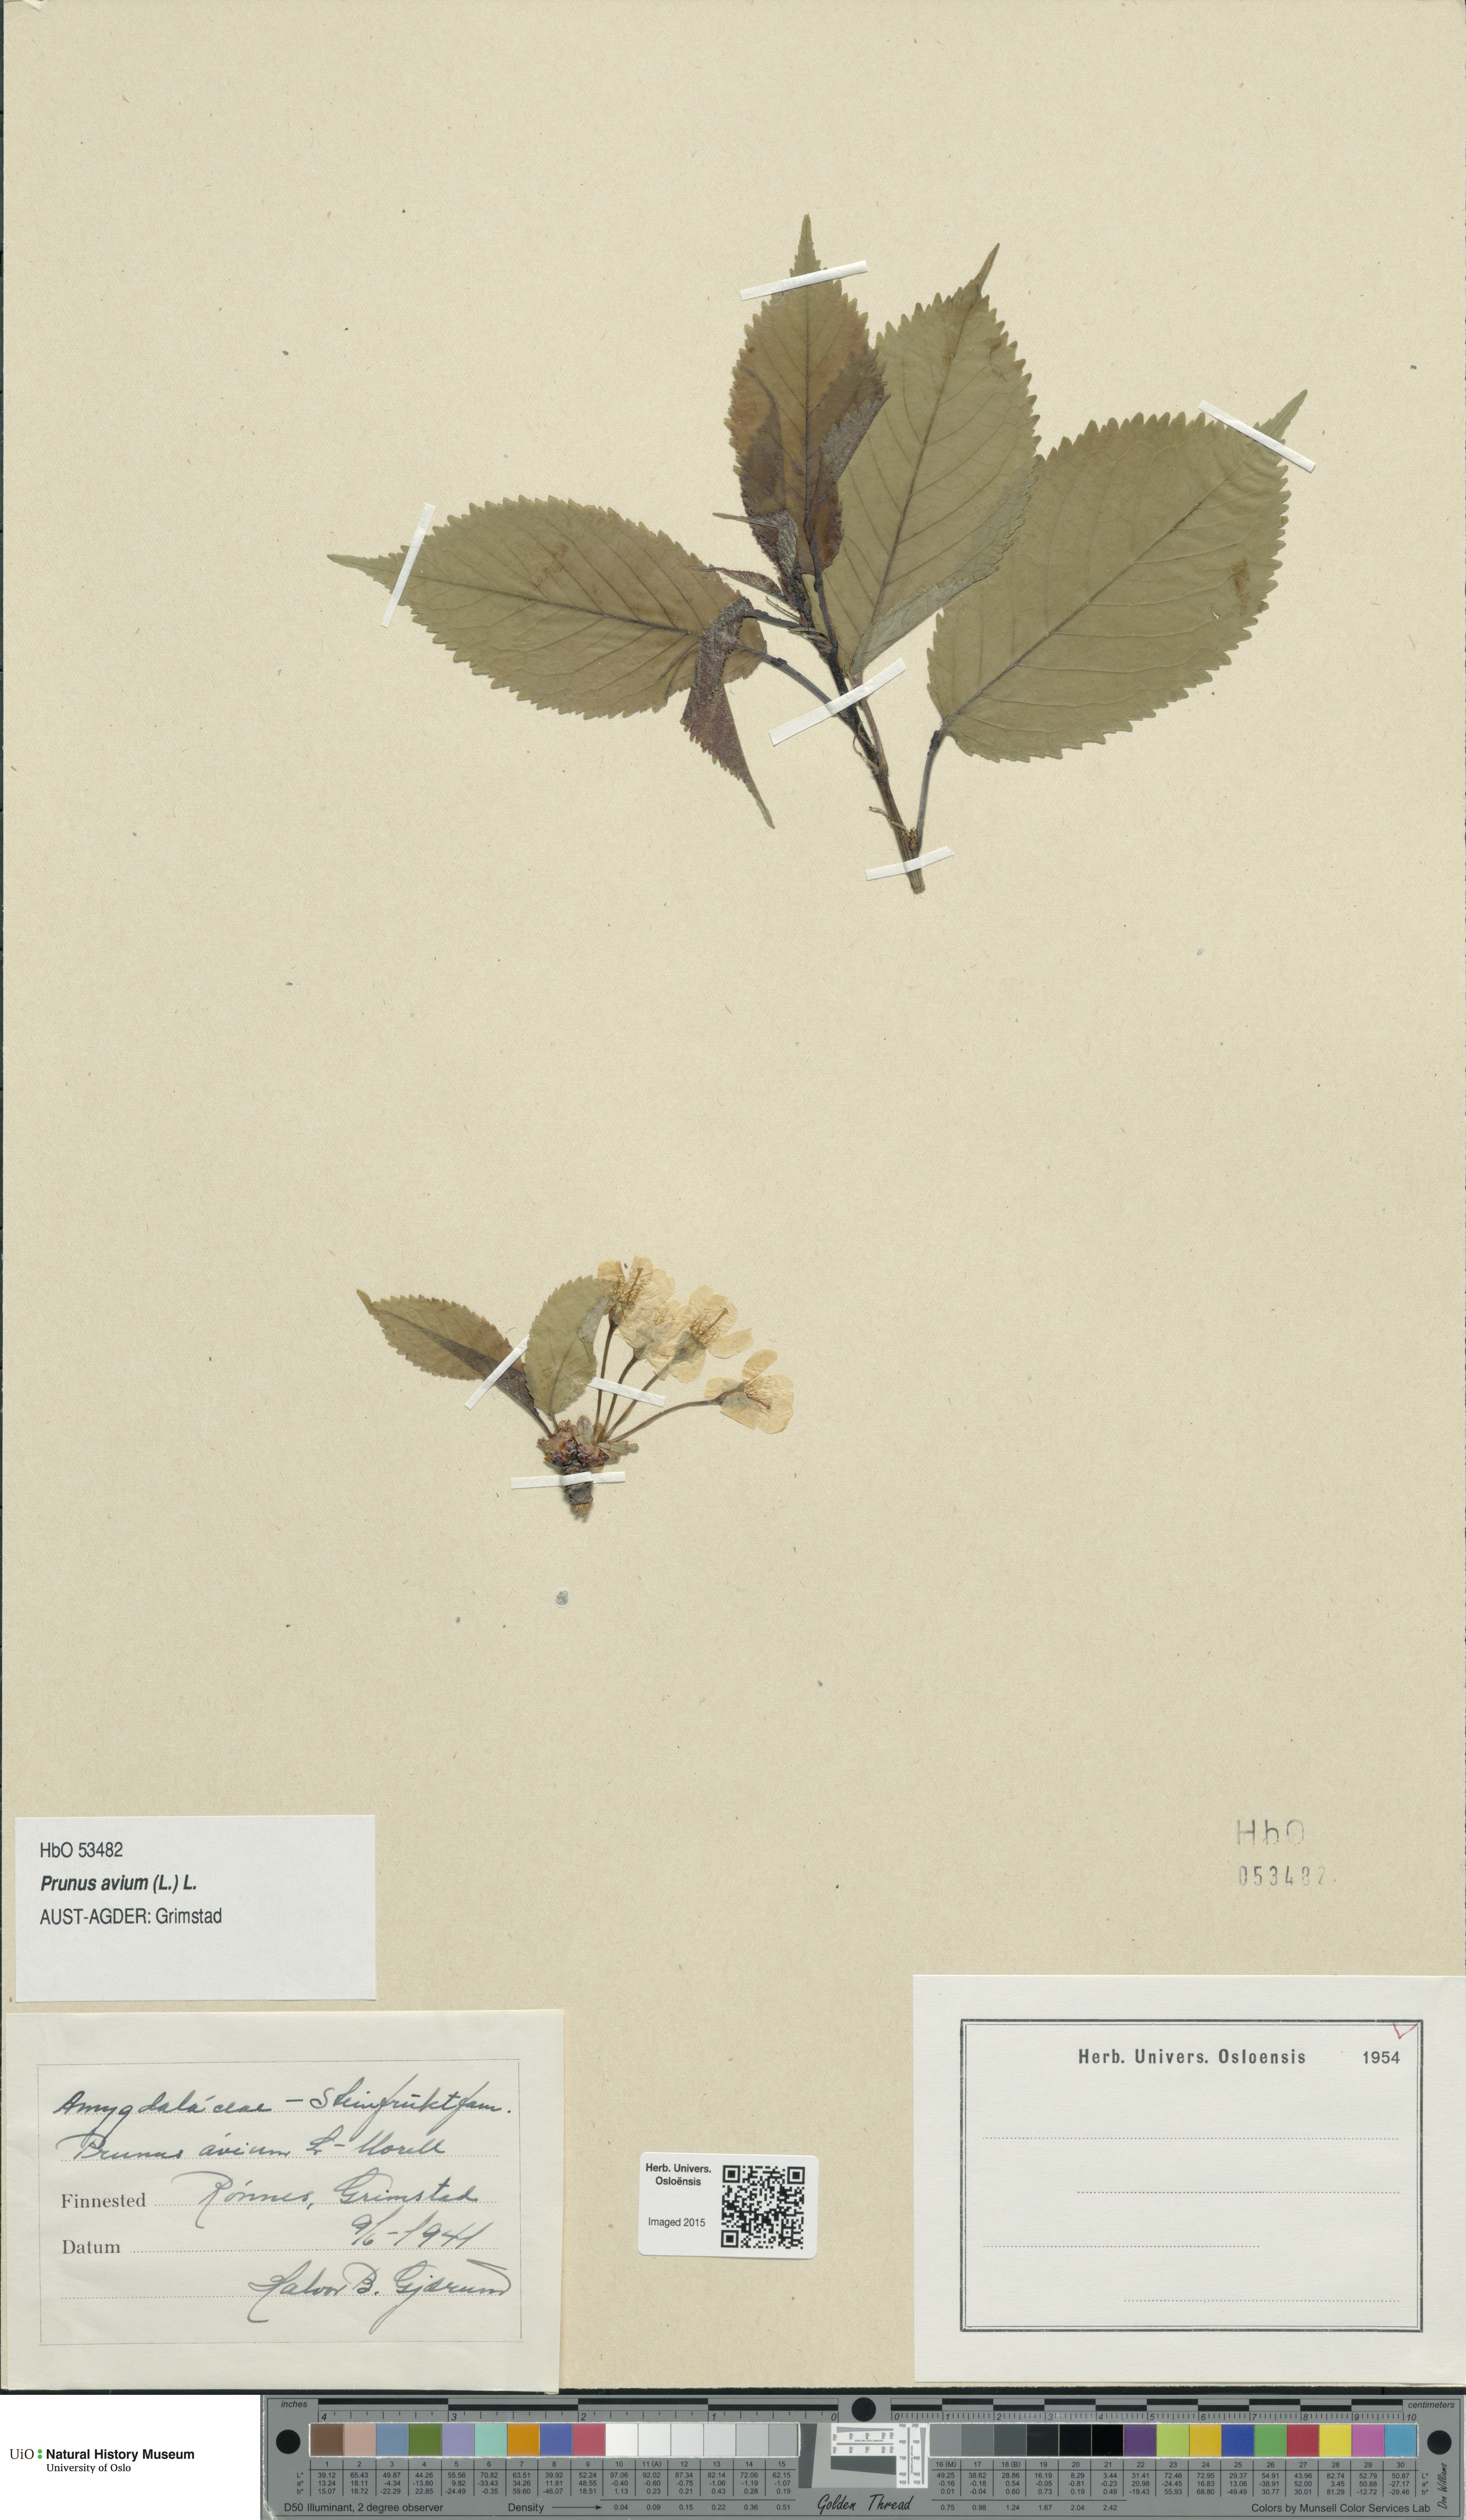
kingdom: Plantae
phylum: Tracheophyta
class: Magnoliopsida
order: Rosales
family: Rosaceae
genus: Prunus
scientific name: Prunus avium
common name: Sweet cherry
